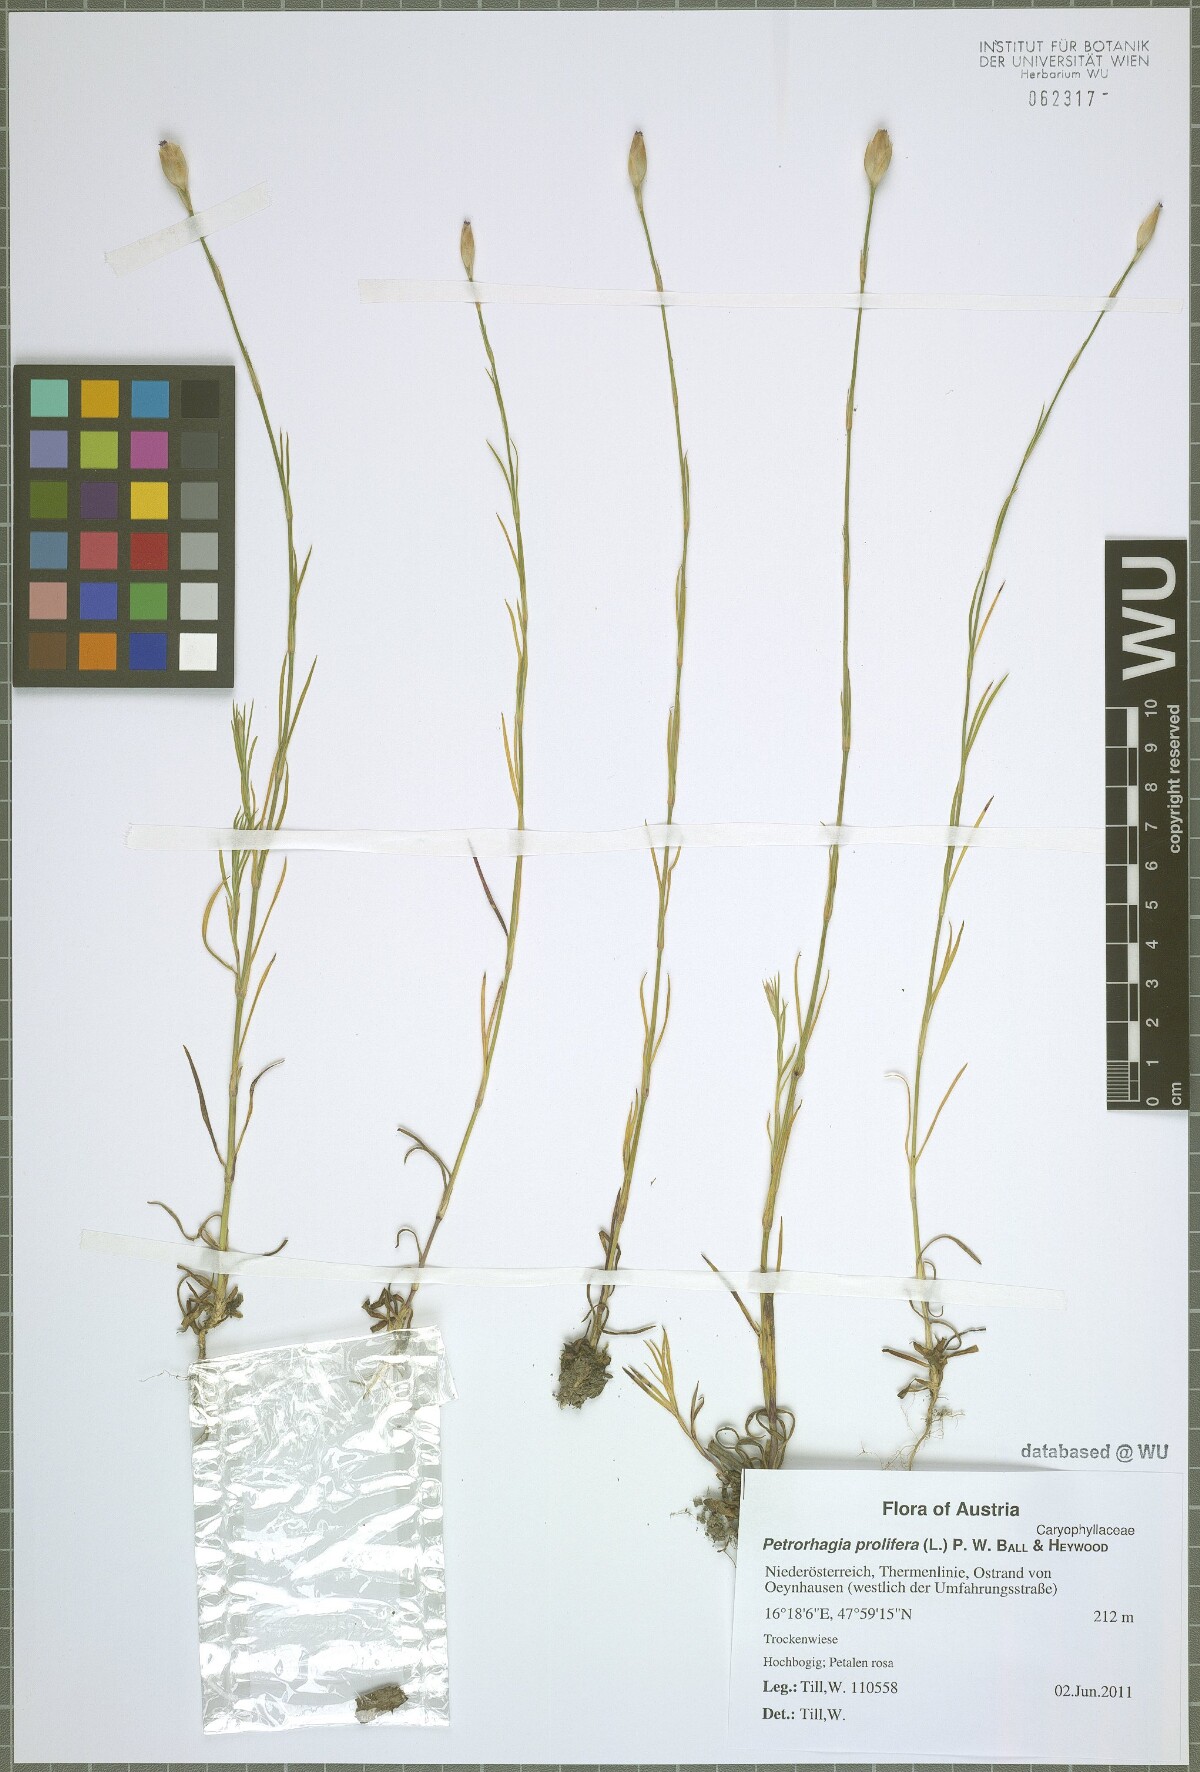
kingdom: Plantae
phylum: Tracheophyta
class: Magnoliopsida
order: Caryophyllales
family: Caryophyllaceae
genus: Petrorhagia
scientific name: Petrorhagia prolifera
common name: Proliferous pink
